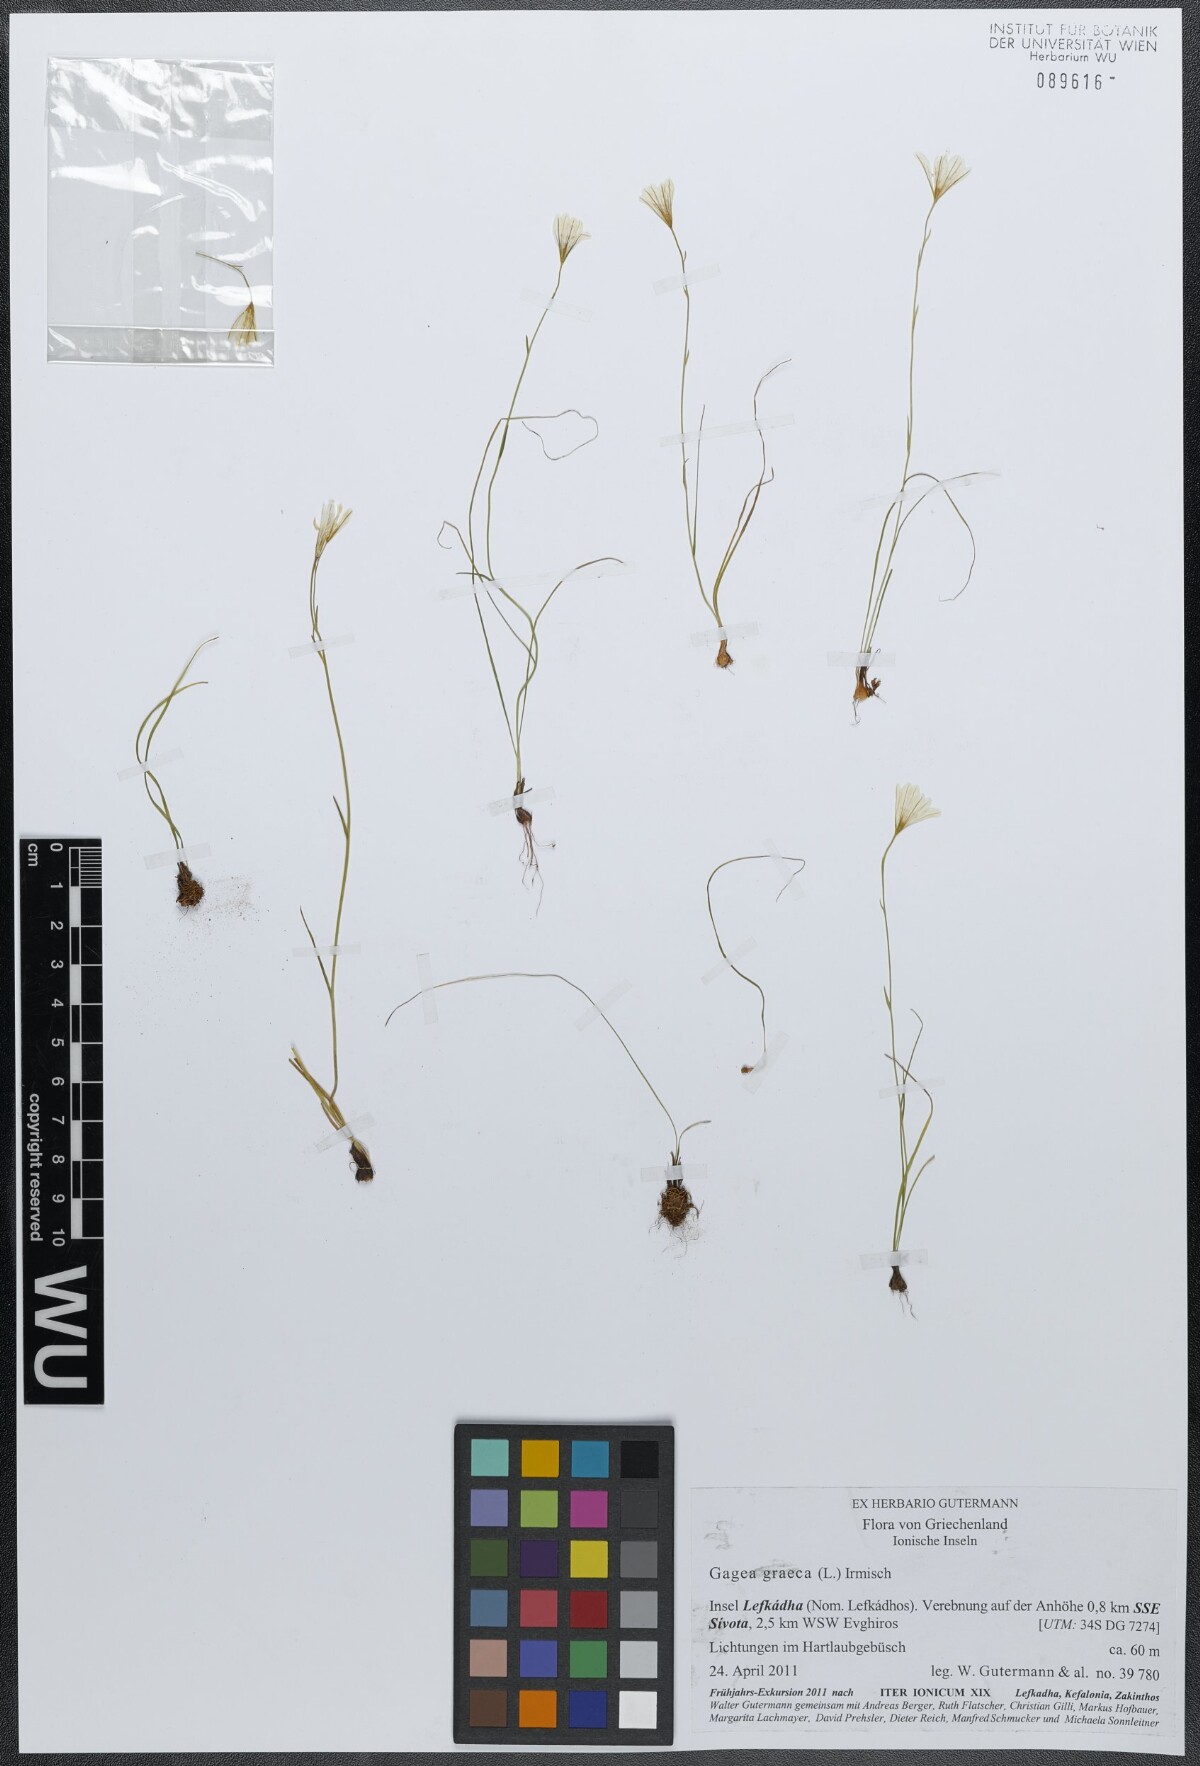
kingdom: Plantae
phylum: Tracheophyta
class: Liliopsida
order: Liliales
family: Liliaceae
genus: Gagea
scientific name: Gagea graeca
